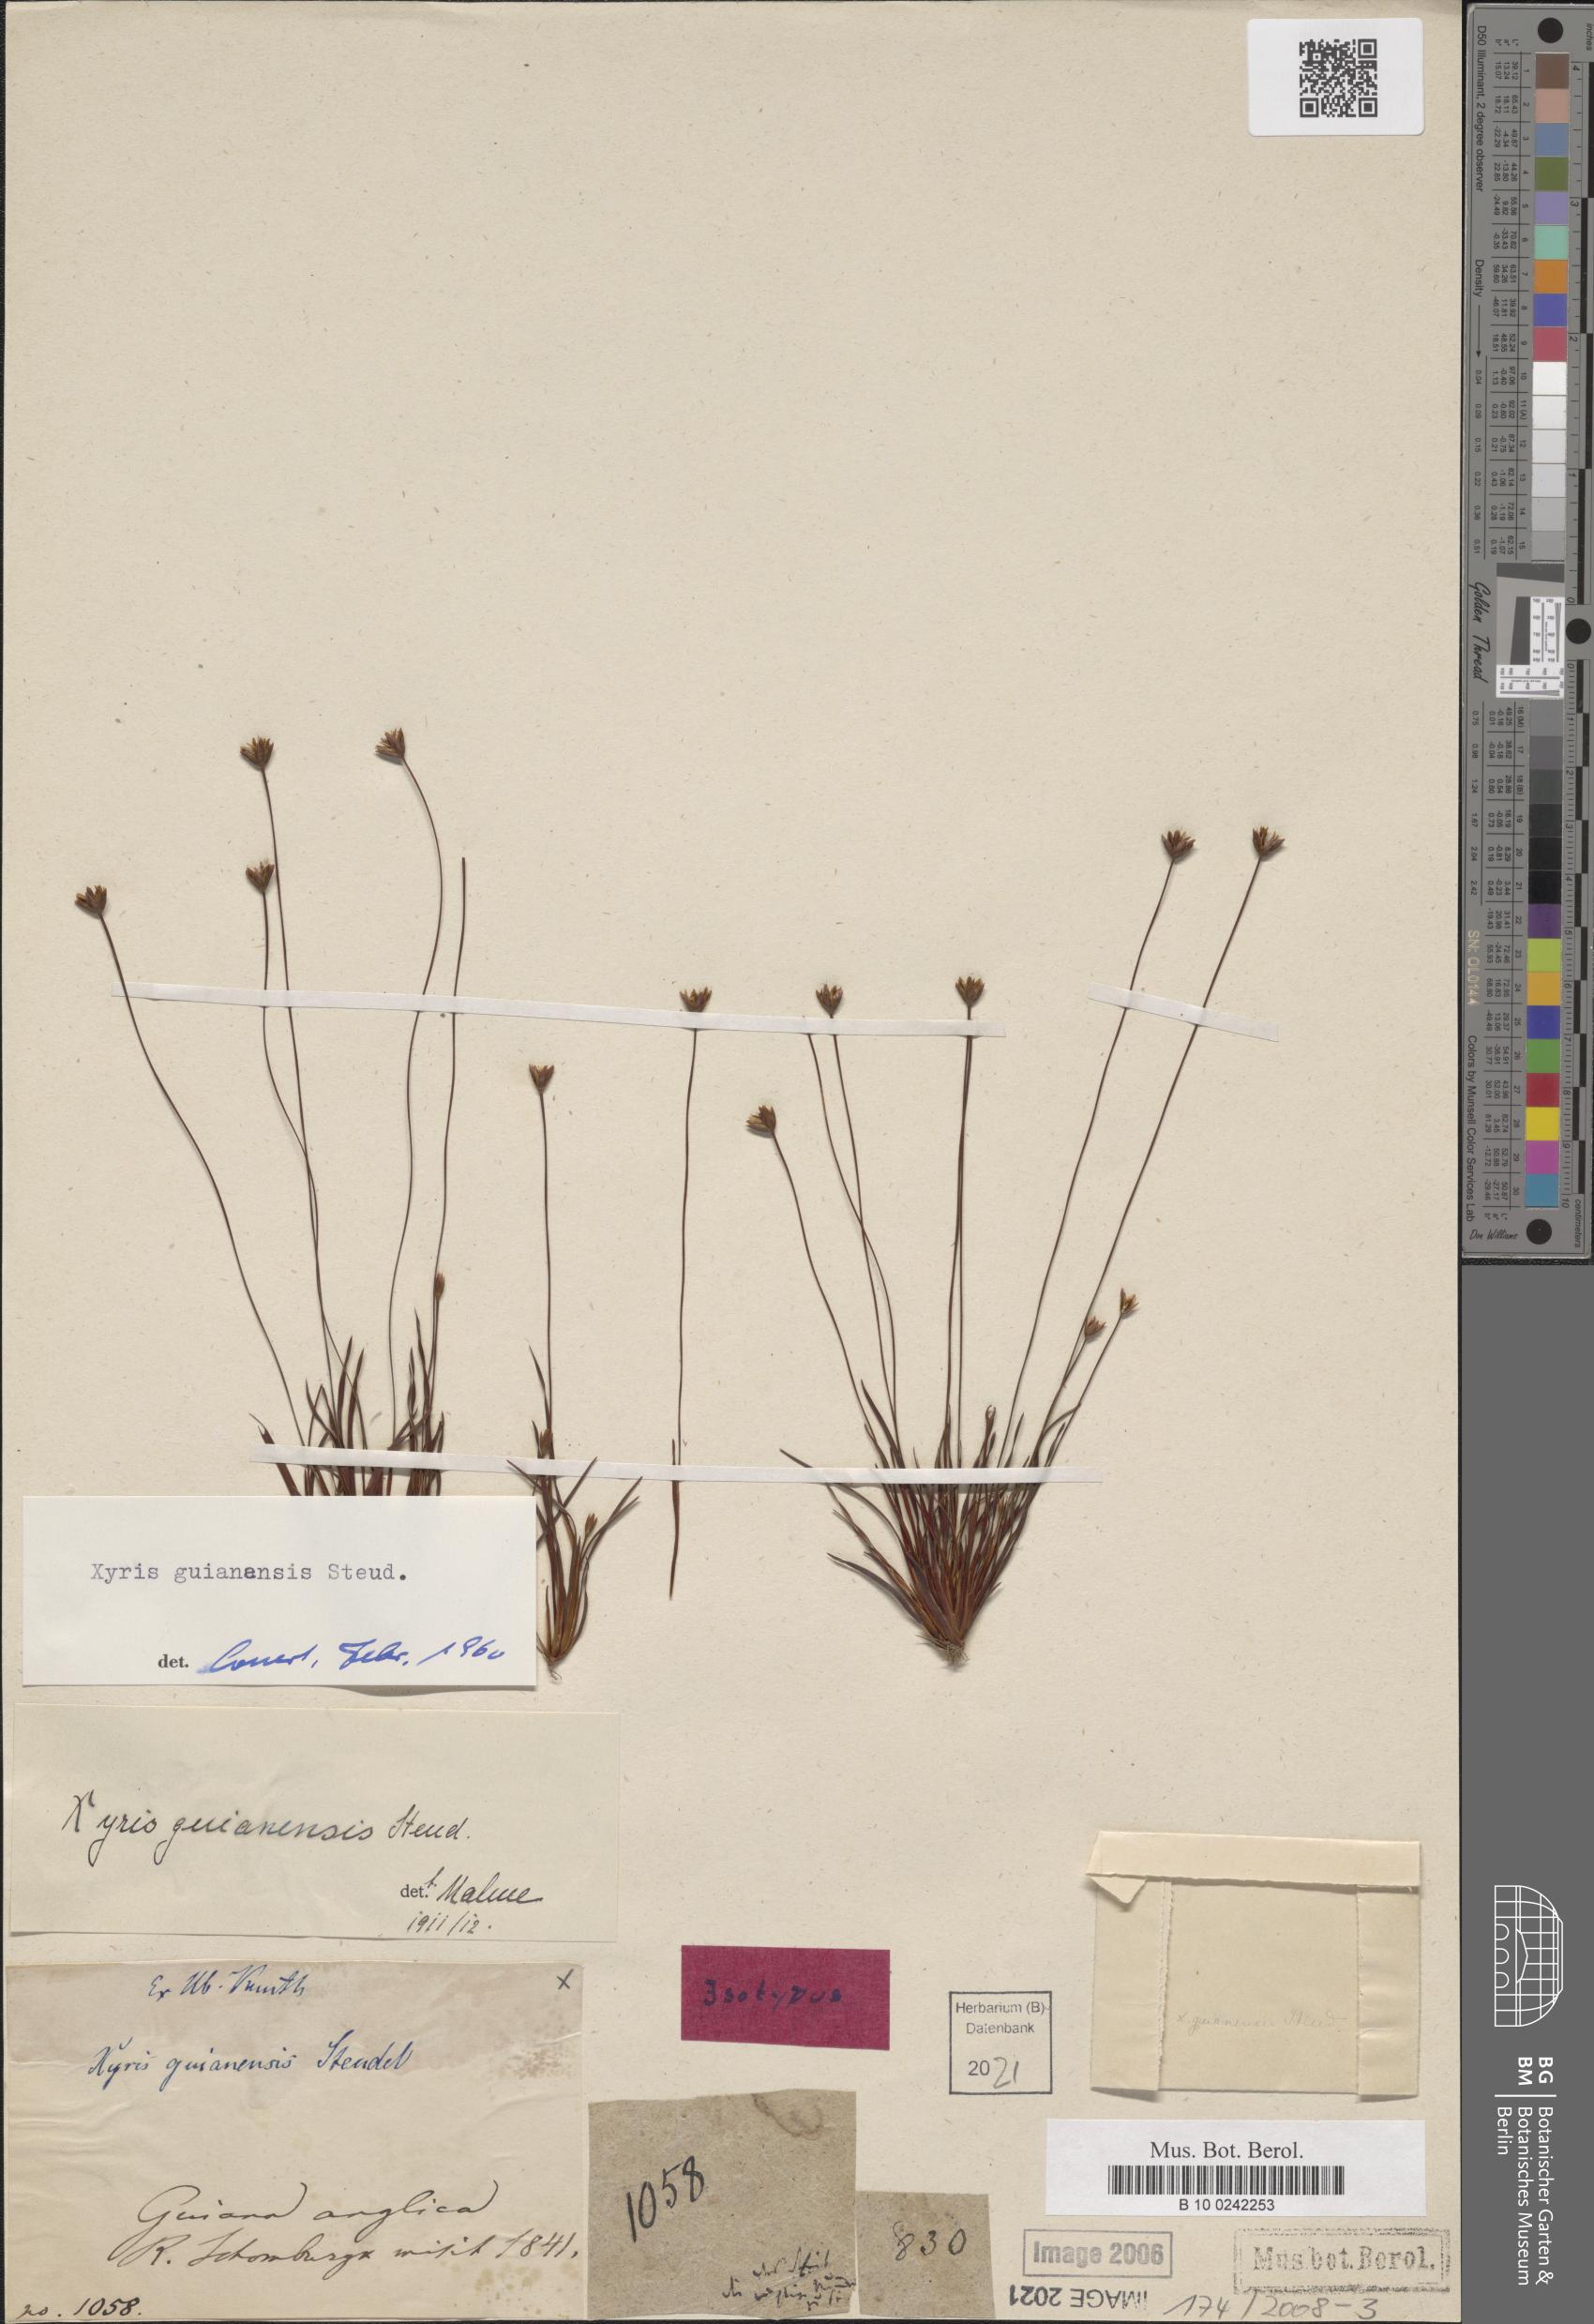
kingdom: Plantae
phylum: Tracheophyta
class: Liliopsida
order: Poales
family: Xyridaceae
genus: Xyris
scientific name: Xyris guianensis
